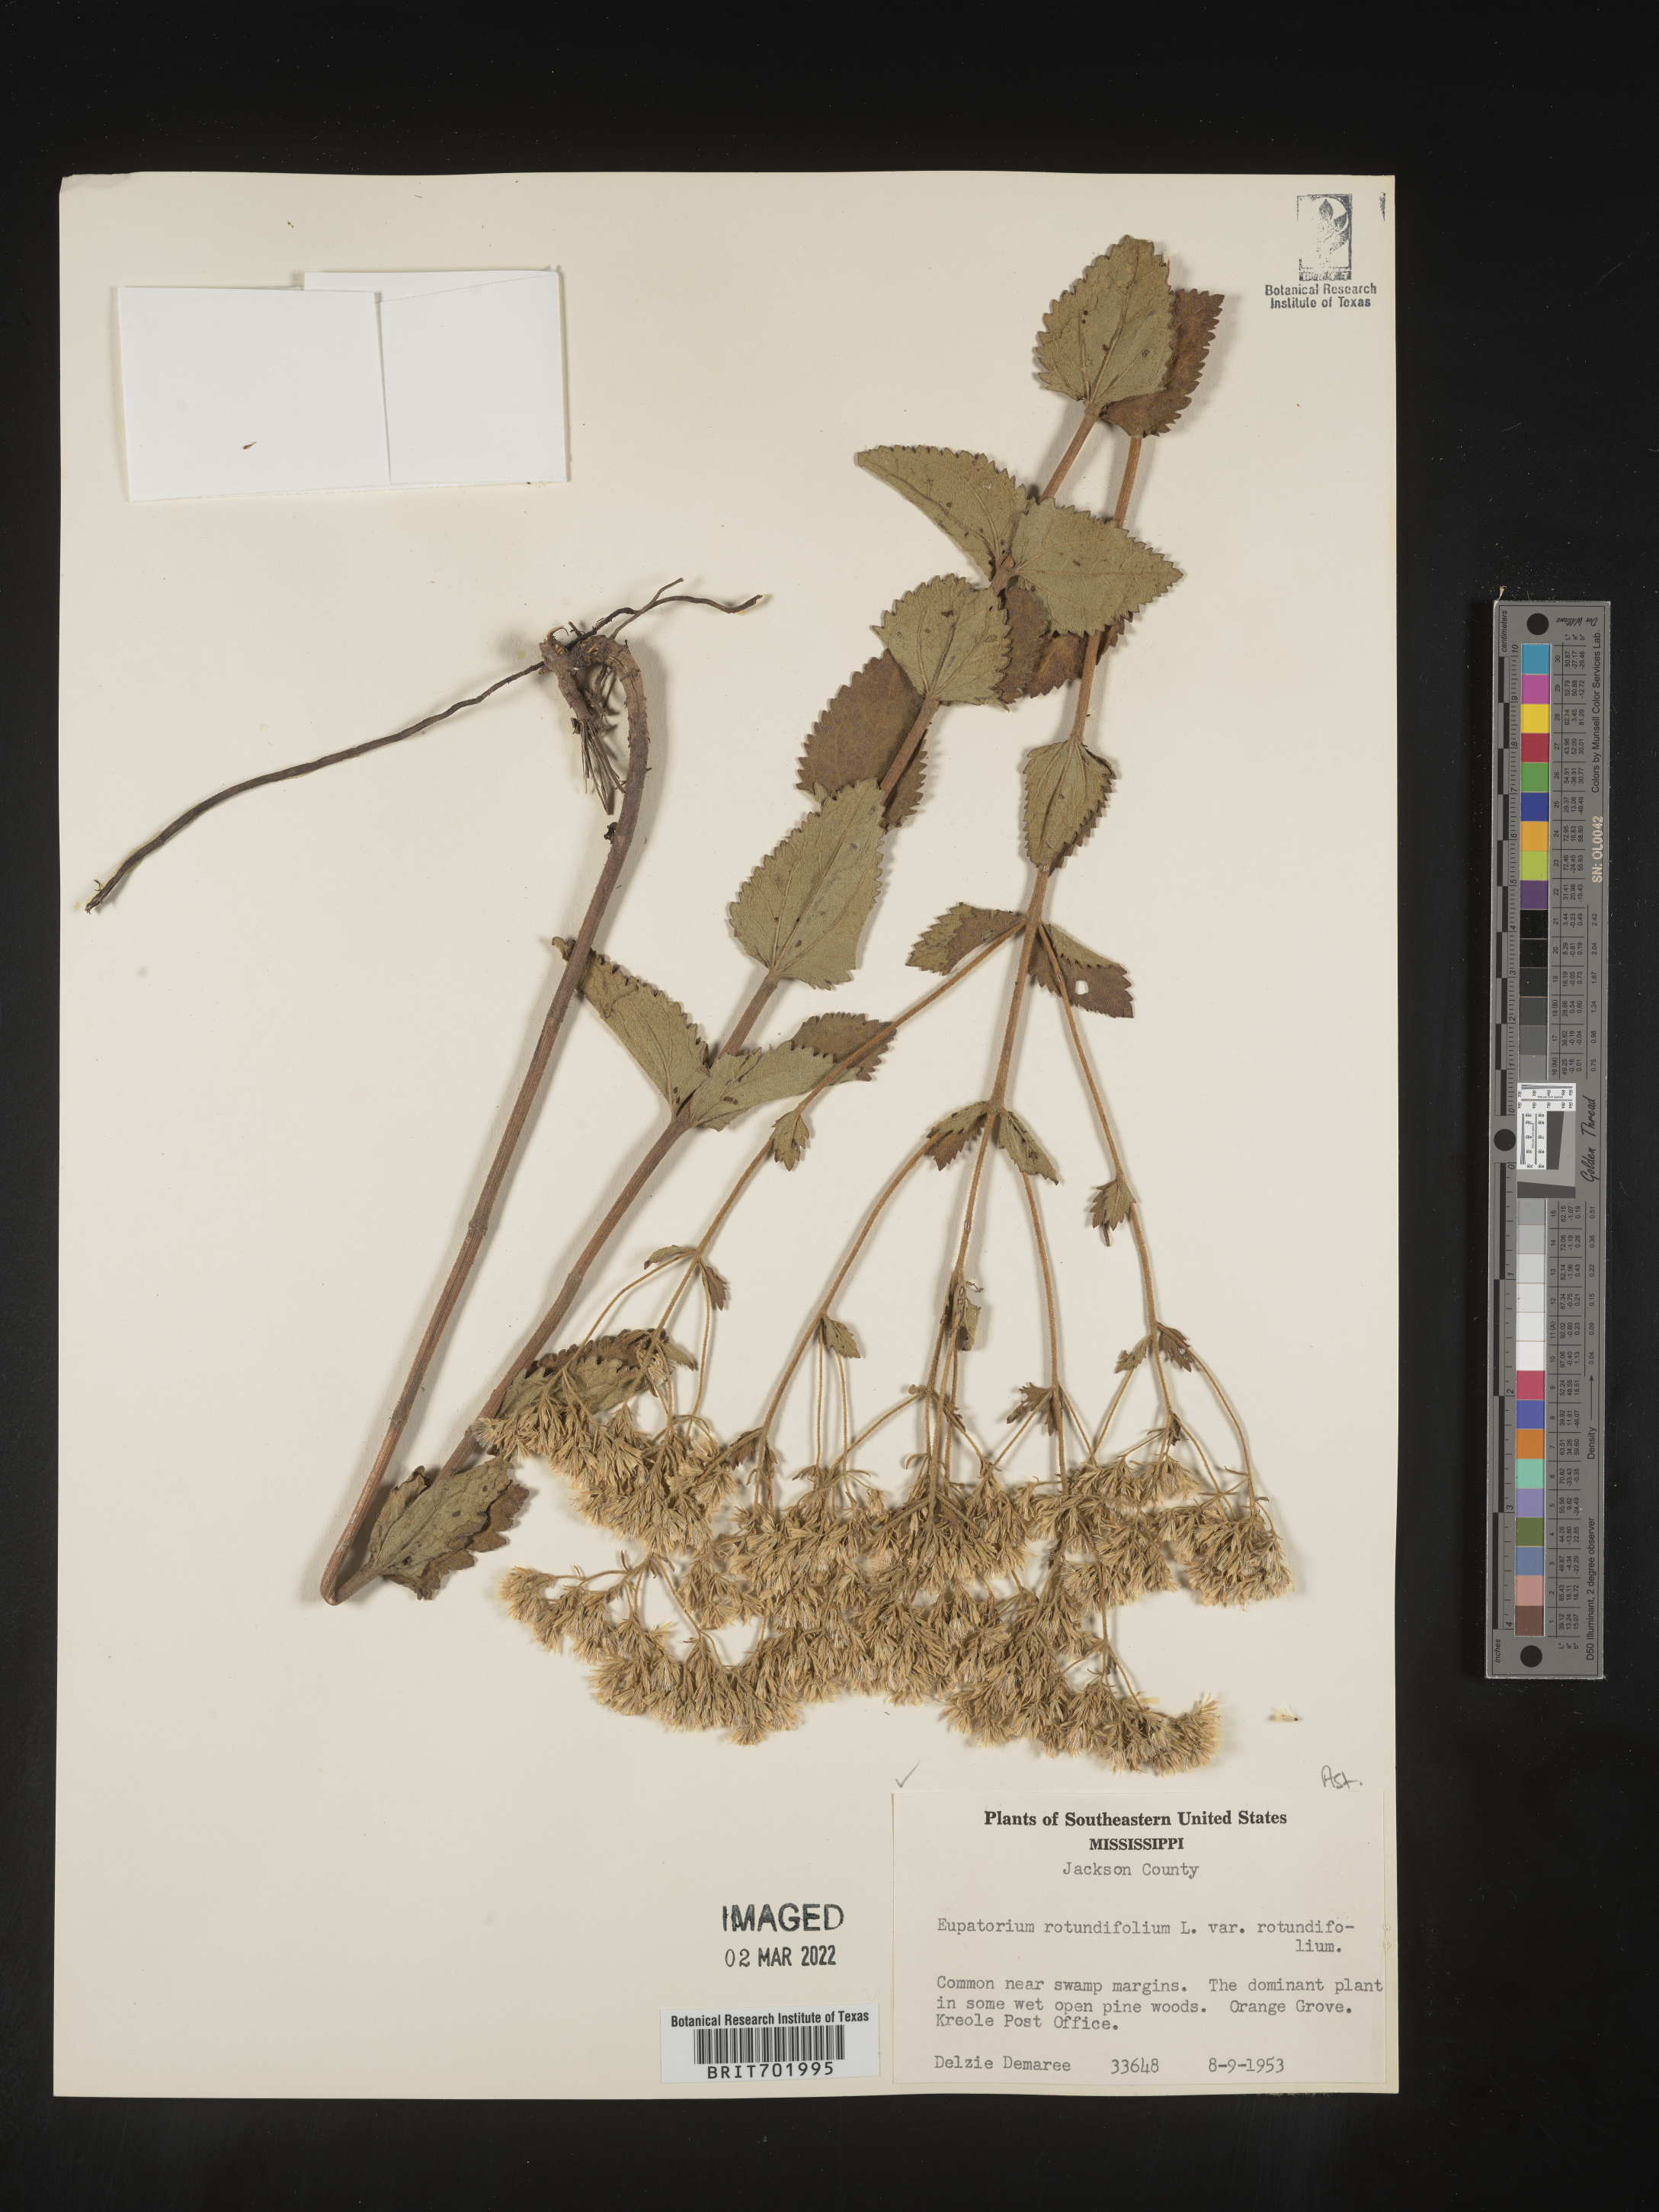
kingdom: Plantae
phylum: Tracheophyta
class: Magnoliopsida
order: Asterales
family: Asteraceae
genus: Eupatorium
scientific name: Eupatorium rotundifolium
